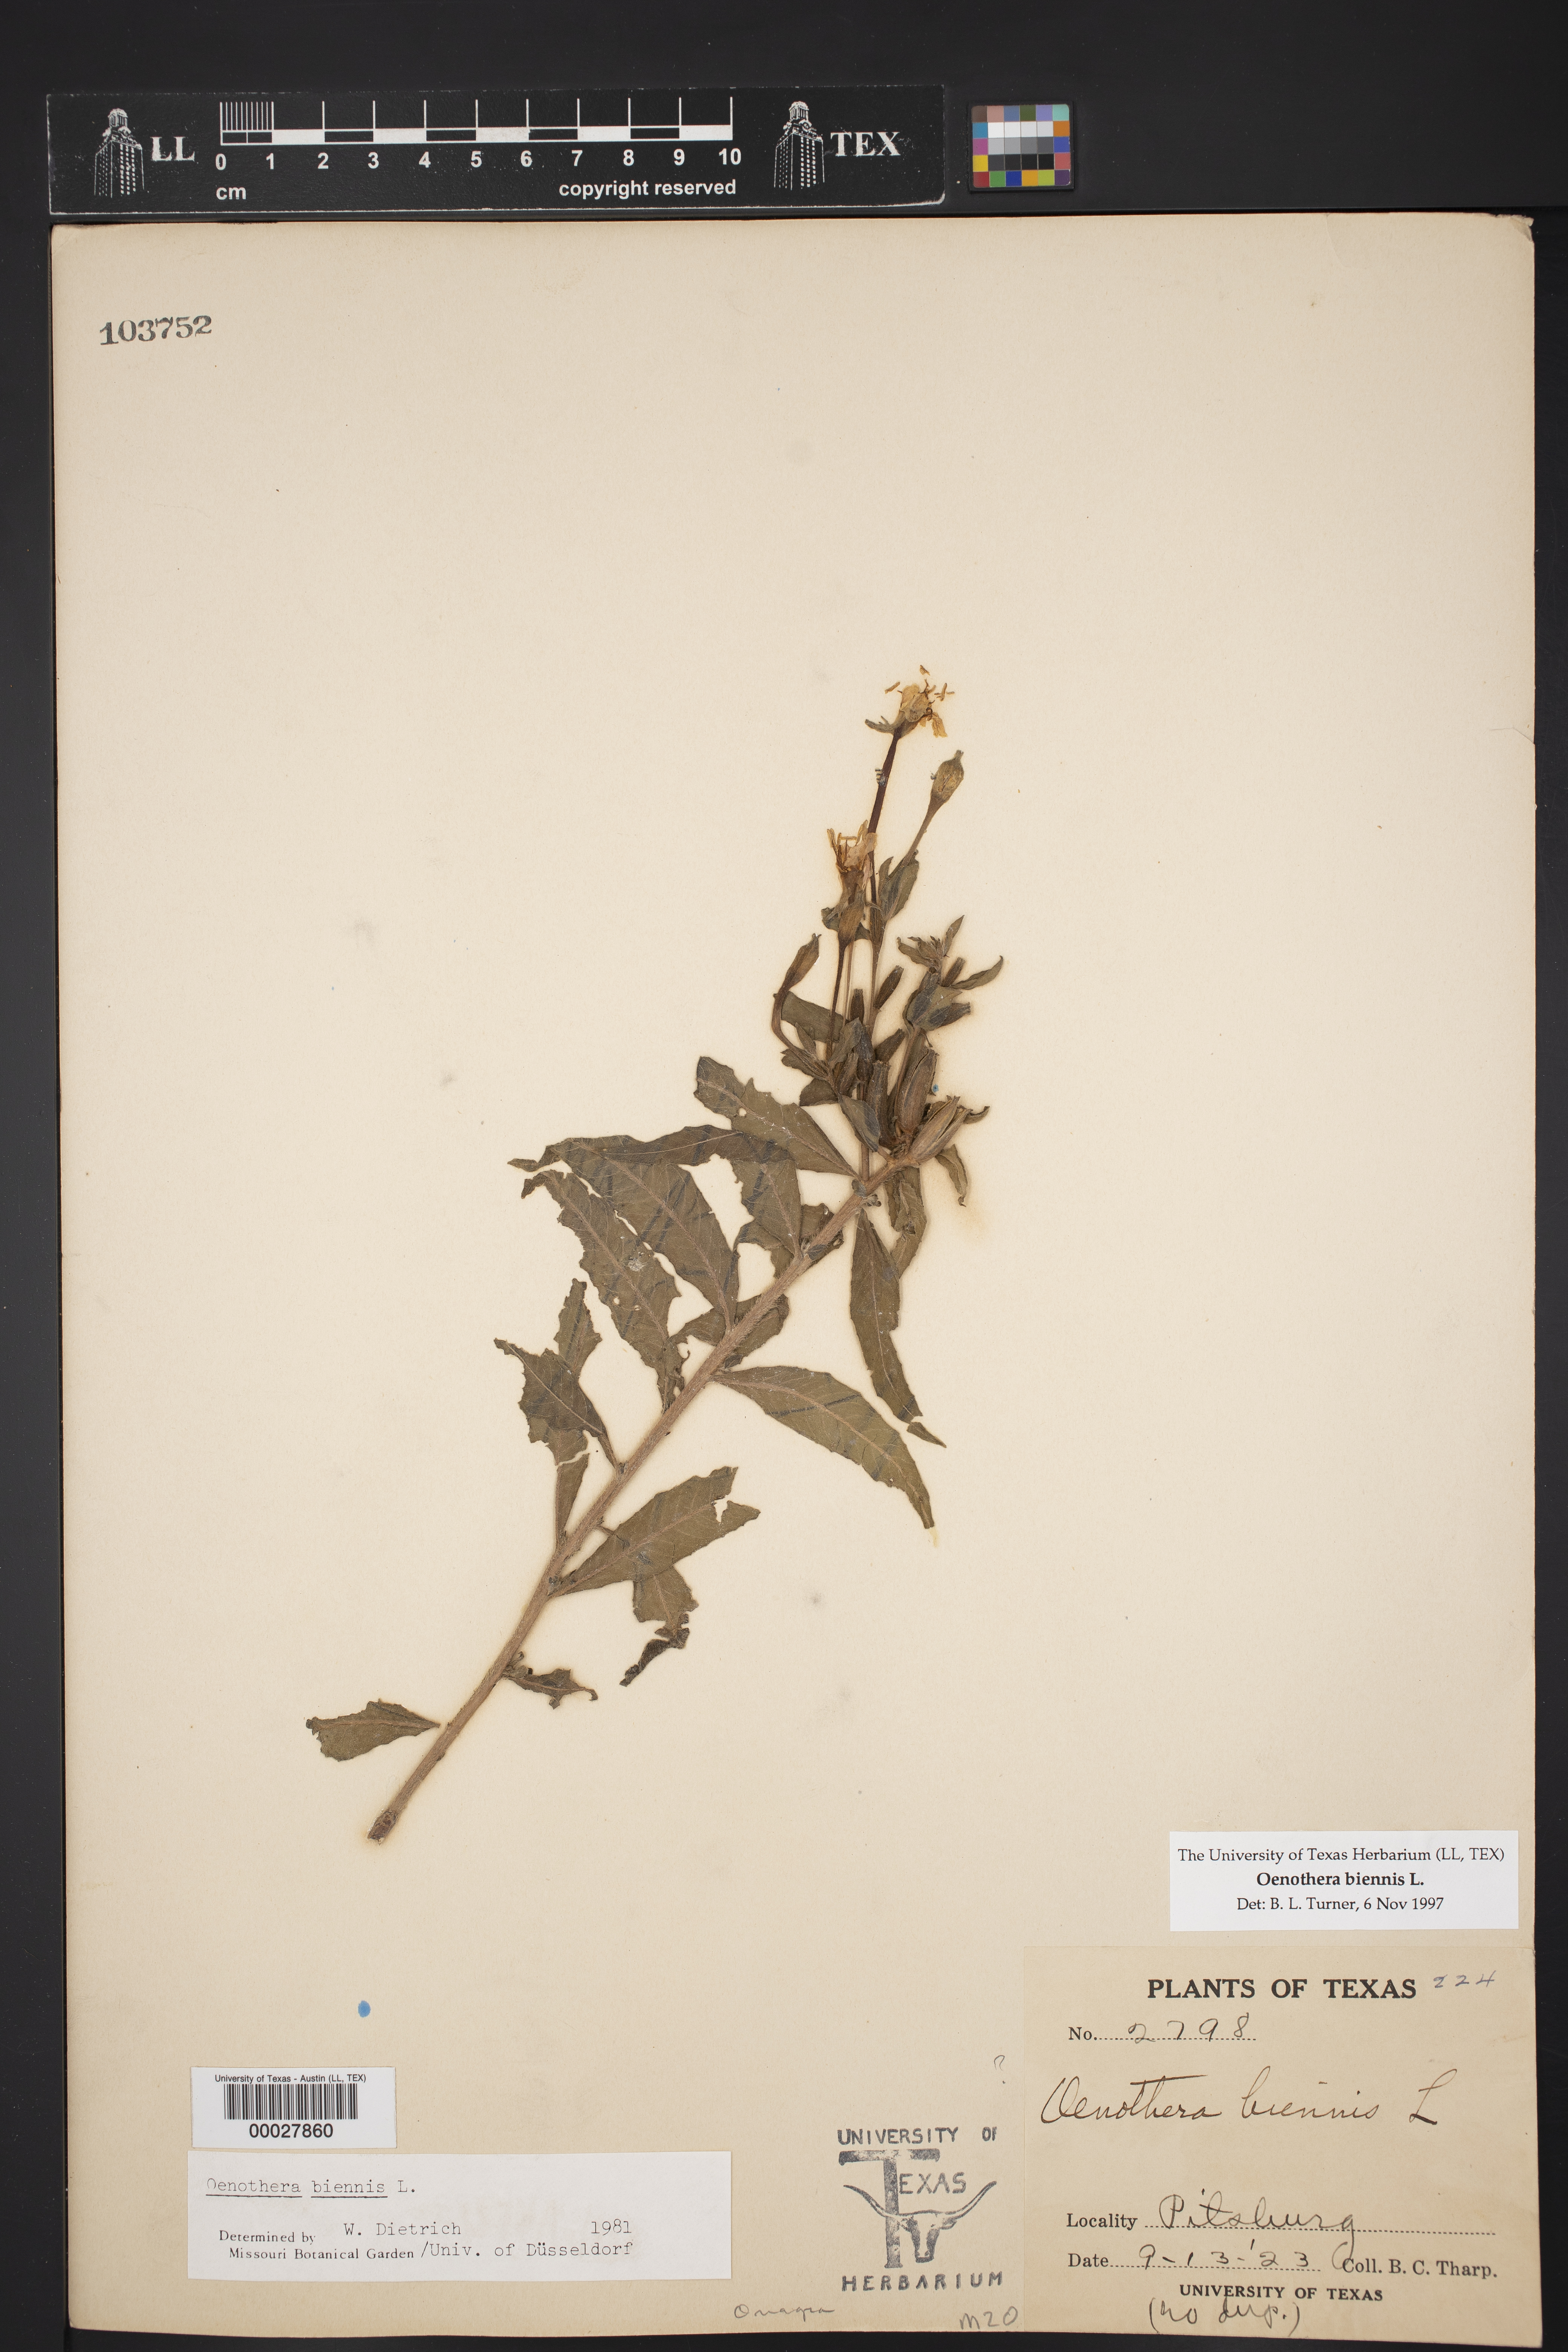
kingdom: Plantae
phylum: Tracheophyta
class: Magnoliopsida
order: Myrtales
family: Onagraceae
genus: Oenothera
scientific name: Oenothera biennis
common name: Common evening-primrose
